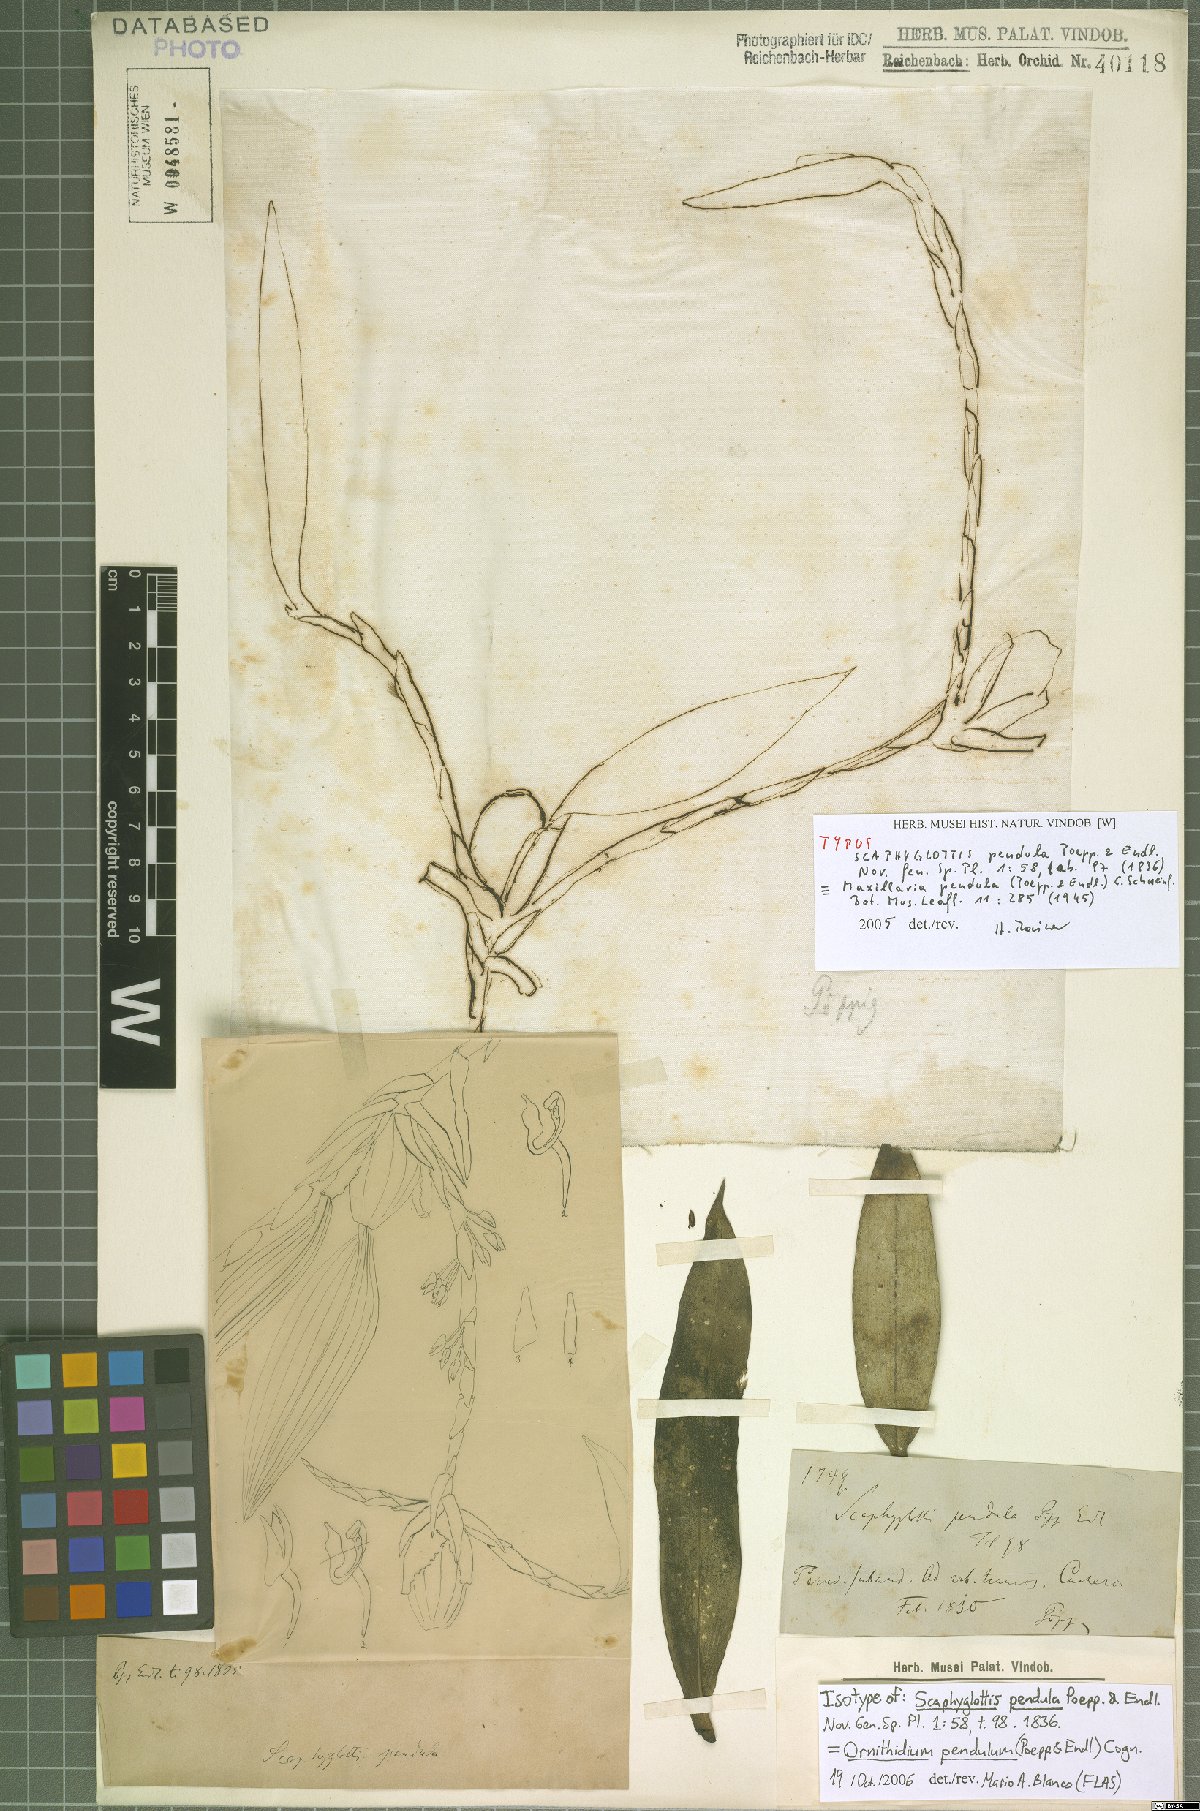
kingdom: Plantae
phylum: Tracheophyta
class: Liliopsida
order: Asparagales
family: Orchidaceae
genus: Maxillaria
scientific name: Maxillaria pendula
